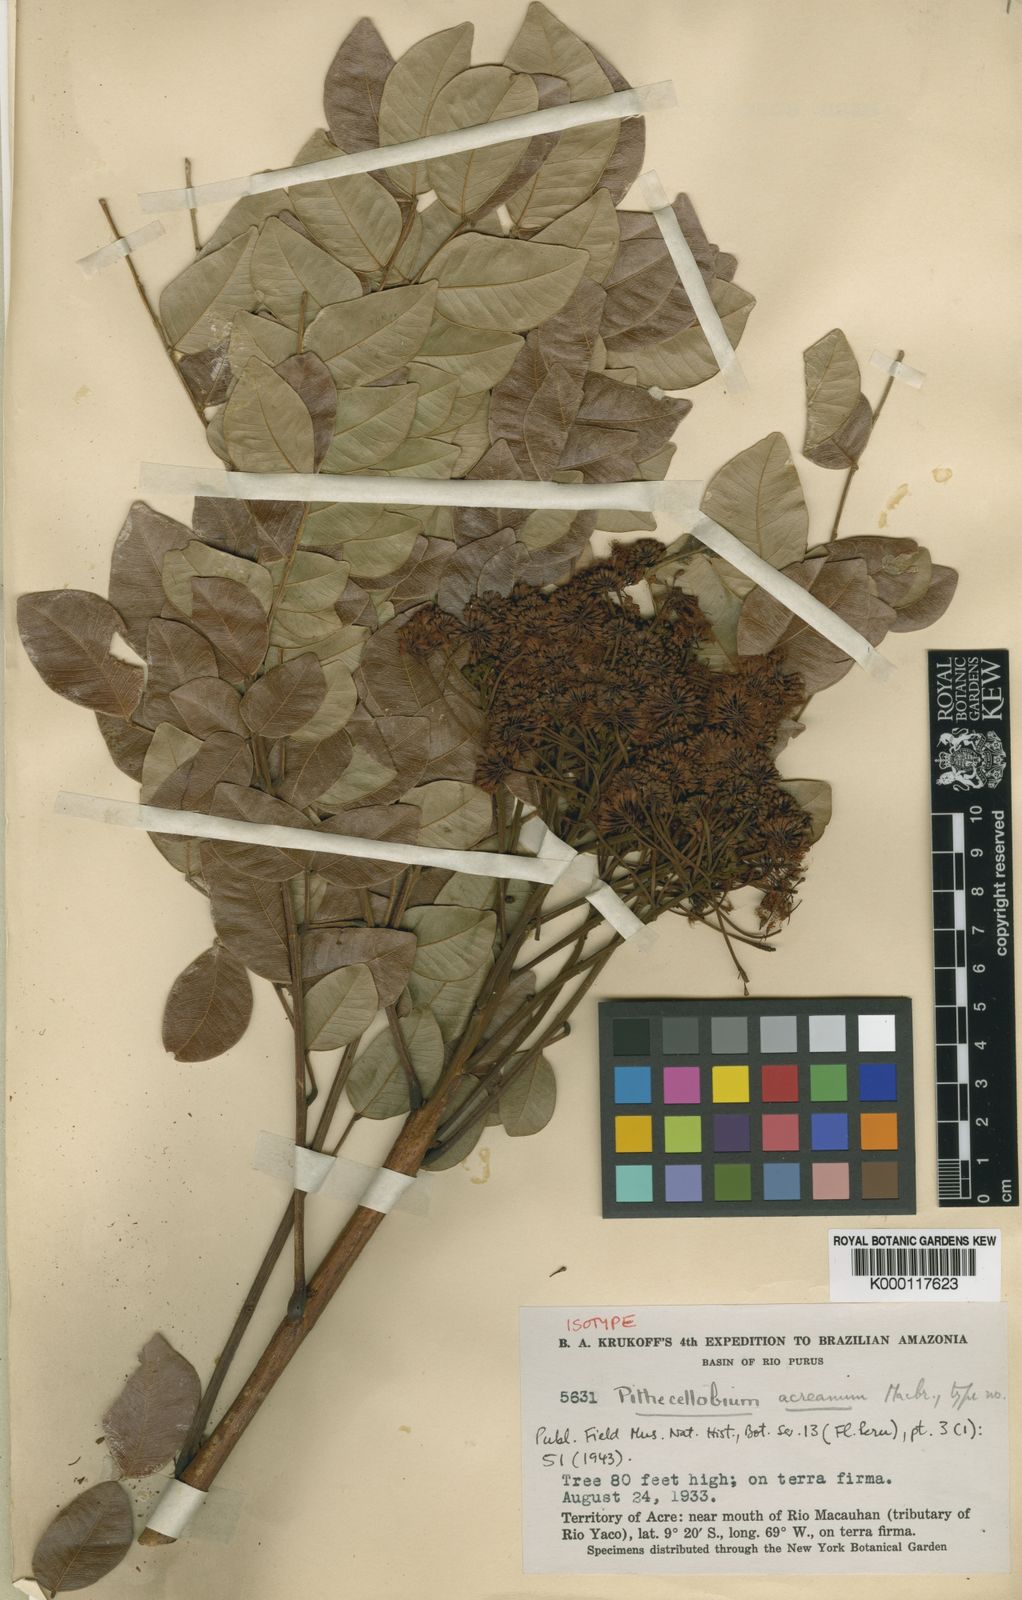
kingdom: Plantae
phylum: Tracheophyta
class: Magnoliopsida
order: Fabales
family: Fabaceae
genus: Hydrochorea
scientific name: Hydrochorea acreana
